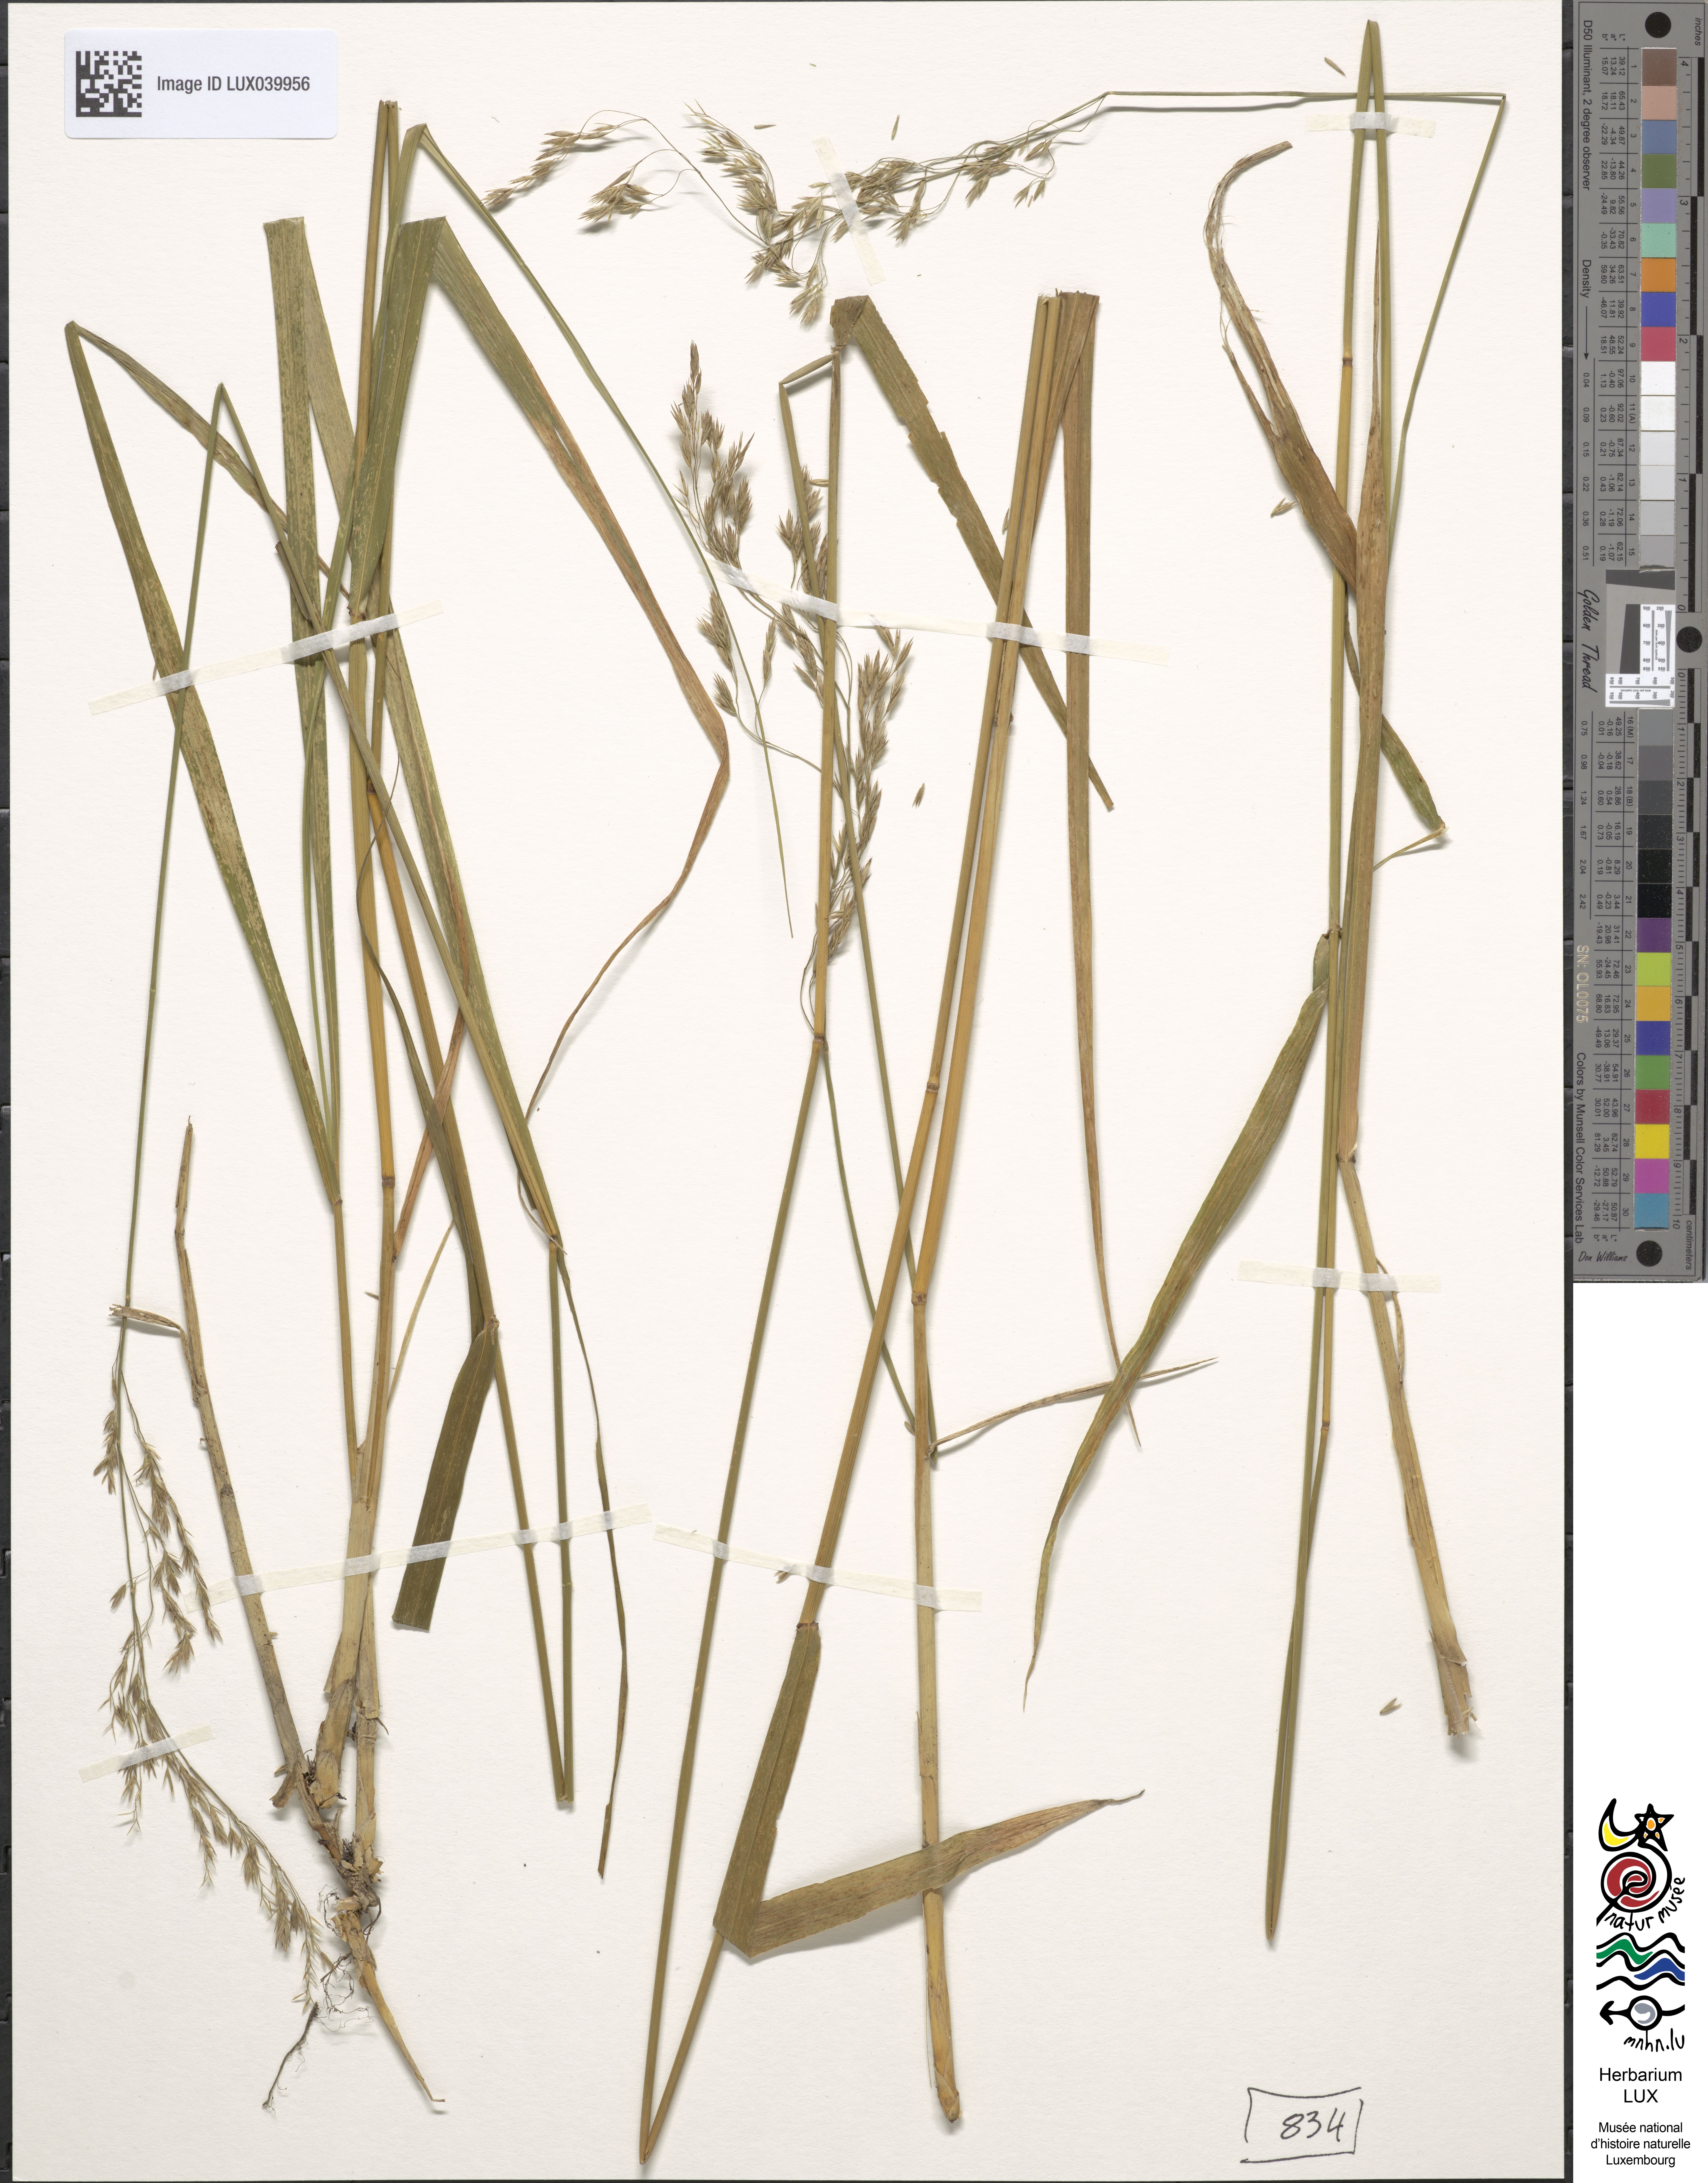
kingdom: Plantae
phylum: Tracheophyta
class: Liliopsida
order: Poales
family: Poaceae
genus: Festuca
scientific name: Festuca altissima
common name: Wood fescue
